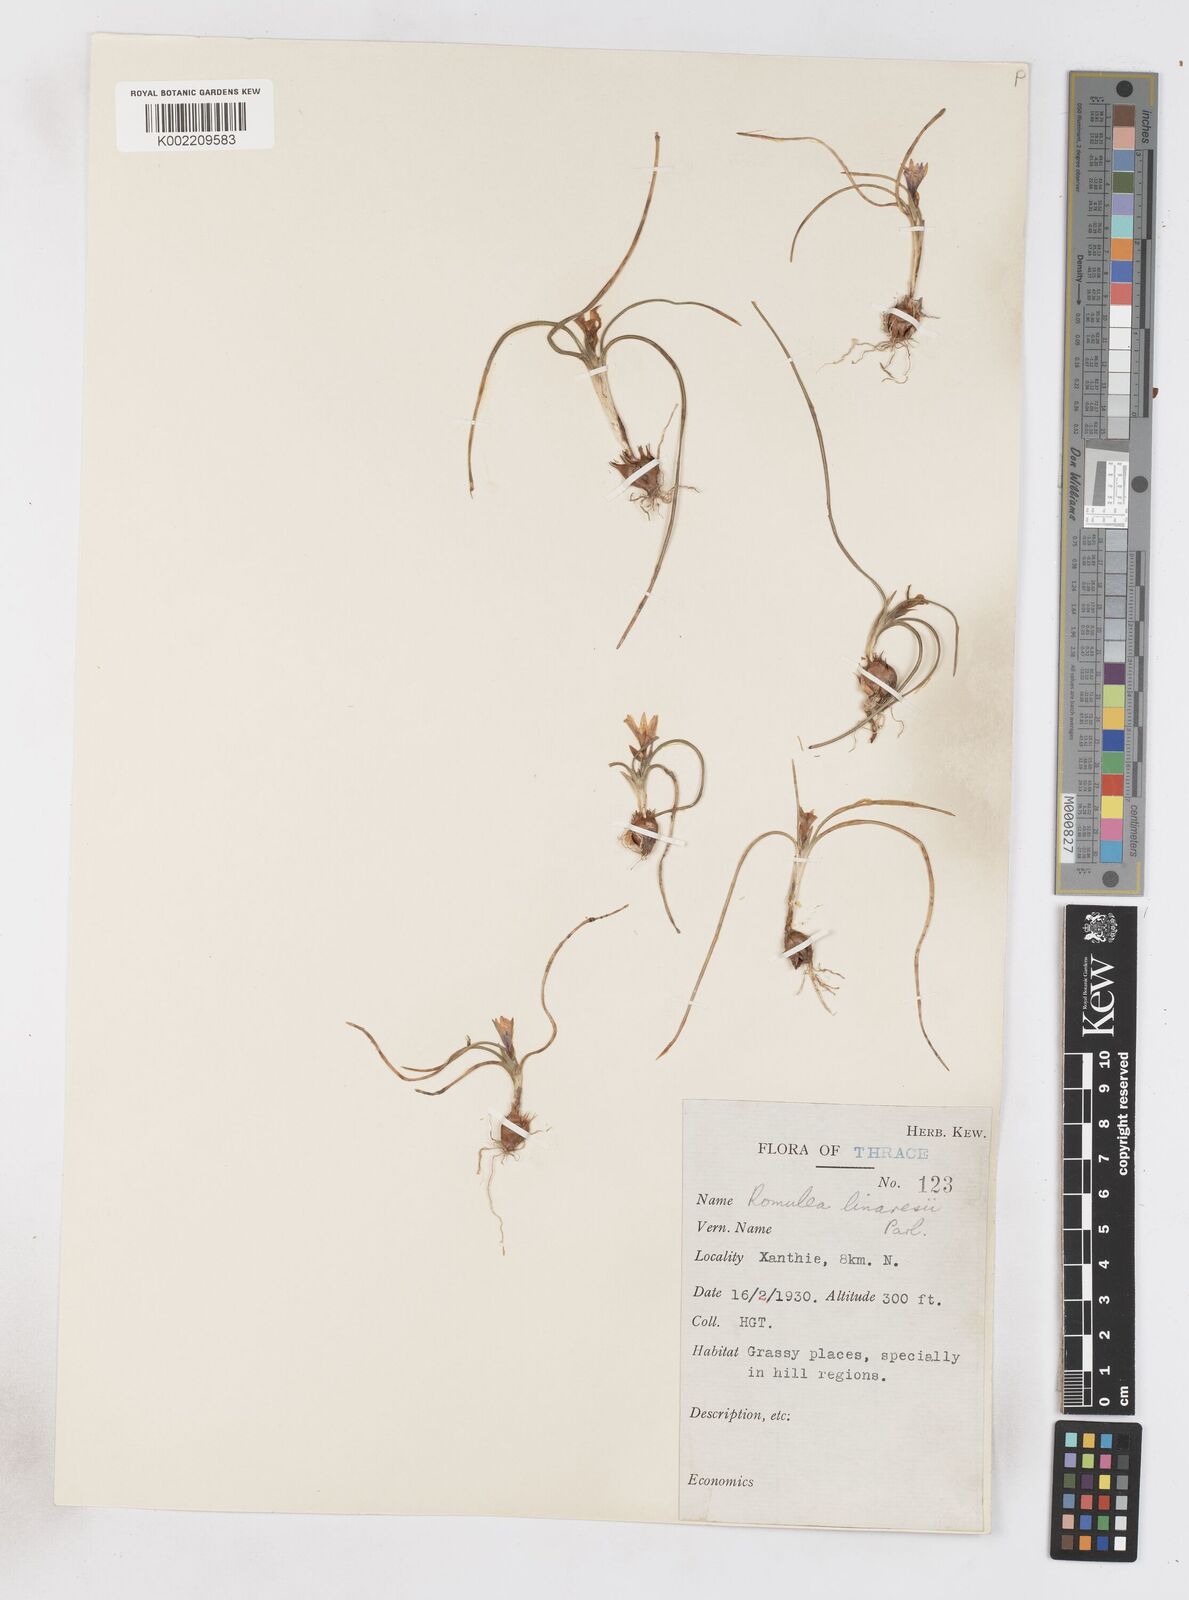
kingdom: Plantae
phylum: Tracheophyta
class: Liliopsida
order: Asparagales
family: Iridaceae
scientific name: Iridaceae
